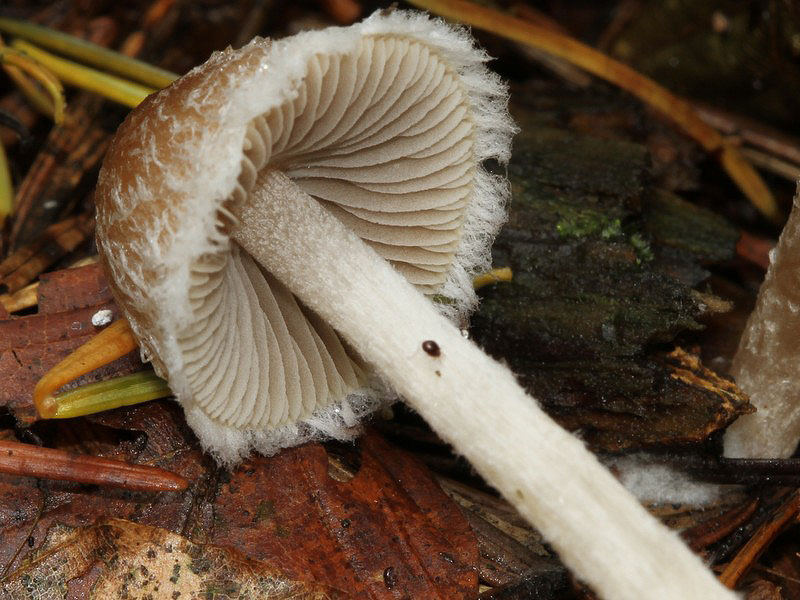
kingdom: Fungi
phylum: Basidiomycota
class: Agaricomycetes
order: Agaricales
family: Psathyrellaceae
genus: Psathyrella
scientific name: Psathyrella impexa
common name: rødmende mørkhat
